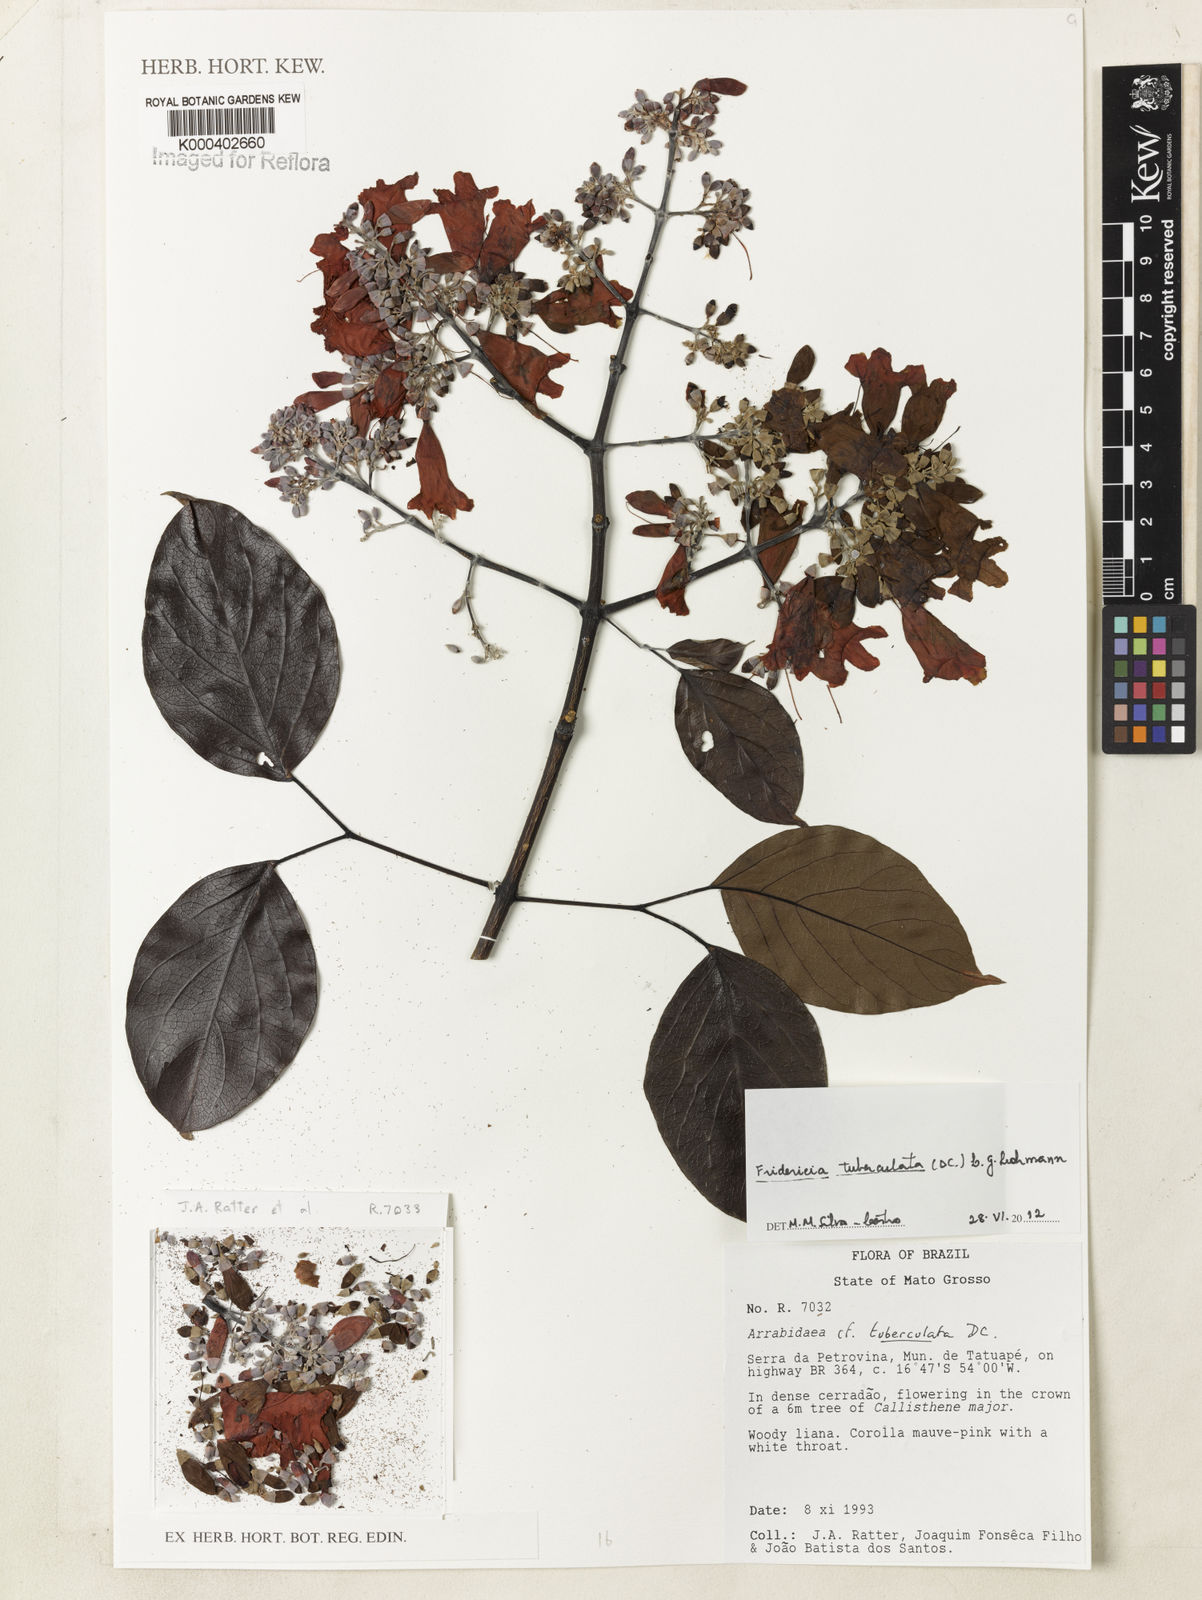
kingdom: Plantae
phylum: Tracheophyta
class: Magnoliopsida
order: Lamiales
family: Bignoniaceae
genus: Fridericia
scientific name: Fridericia tuberculata
